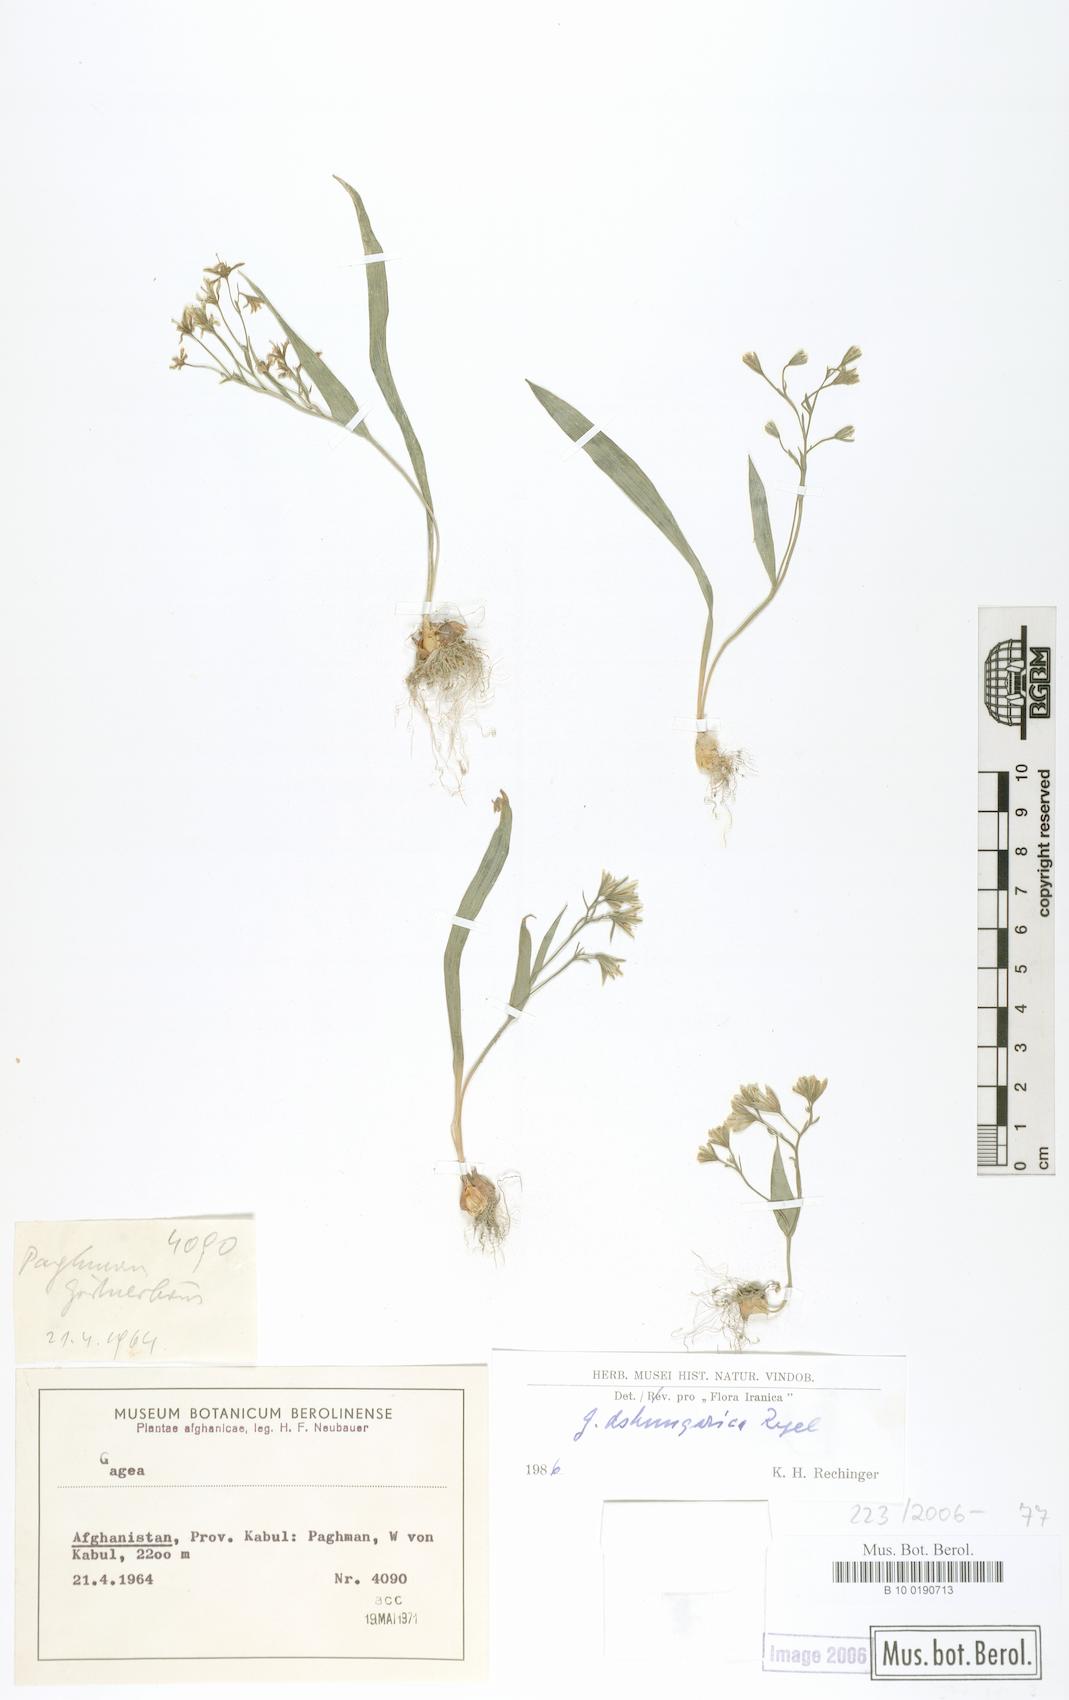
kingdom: Plantae
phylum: Tracheophyta
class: Liliopsida
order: Liliales
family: Liliaceae
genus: Gagea
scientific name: Gagea dschungarica
